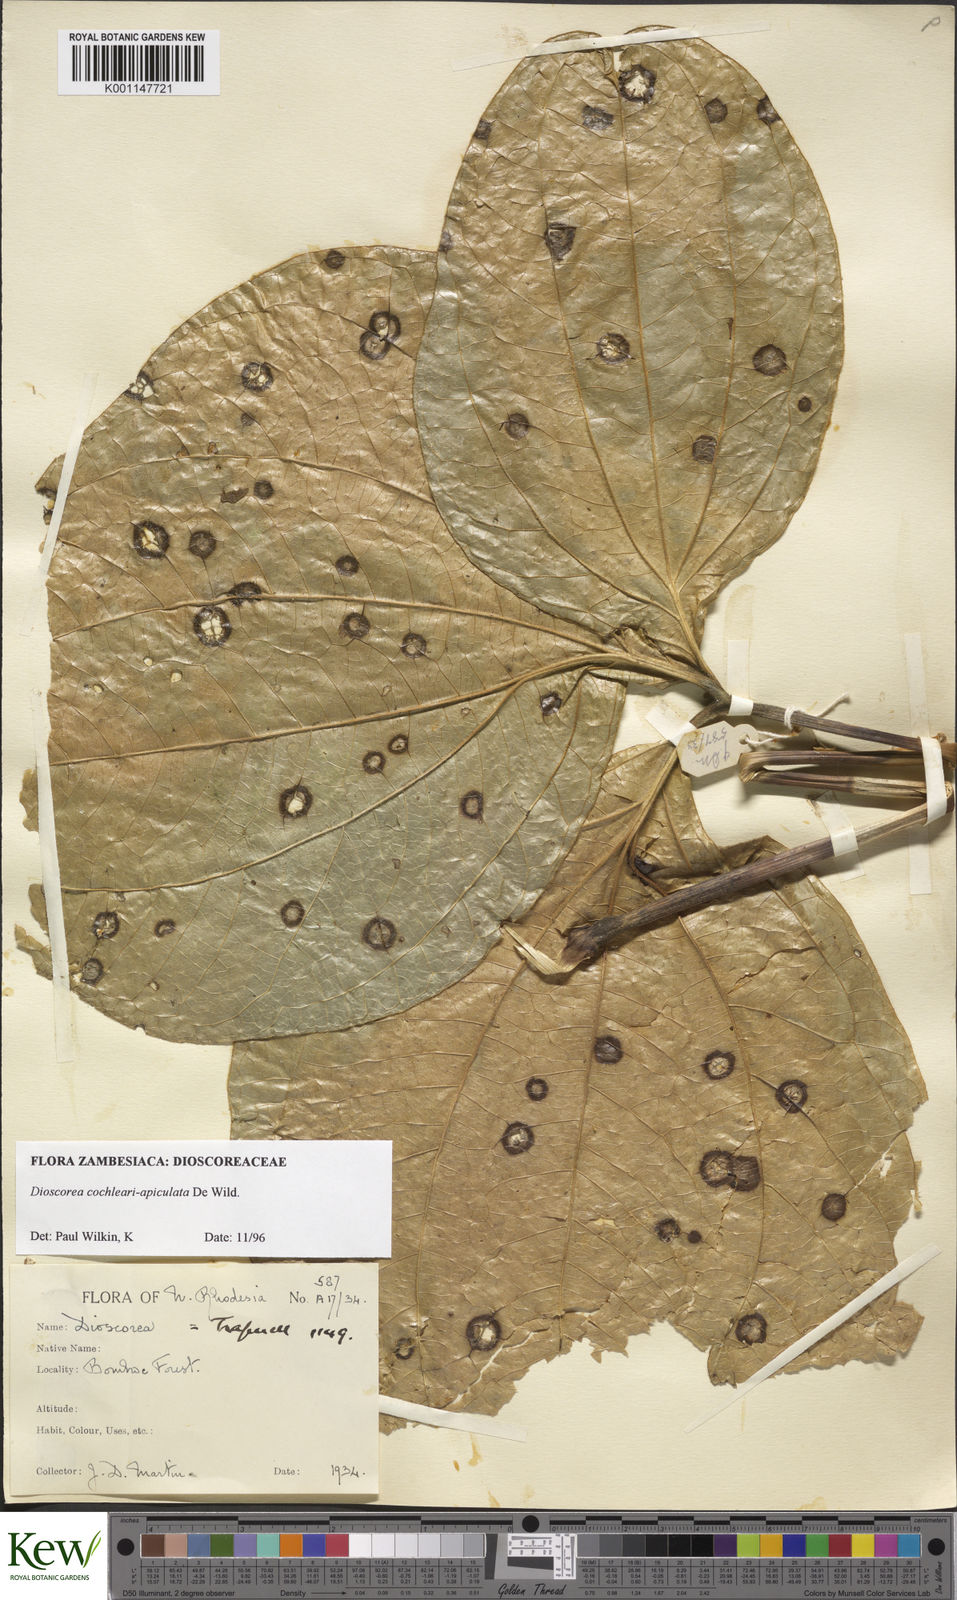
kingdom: Plantae
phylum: Tracheophyta
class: Liliopsida
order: Dioscoreales
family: Dioscoreaceae
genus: Dioscorea
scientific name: Dioscorea cochleariapiculata
